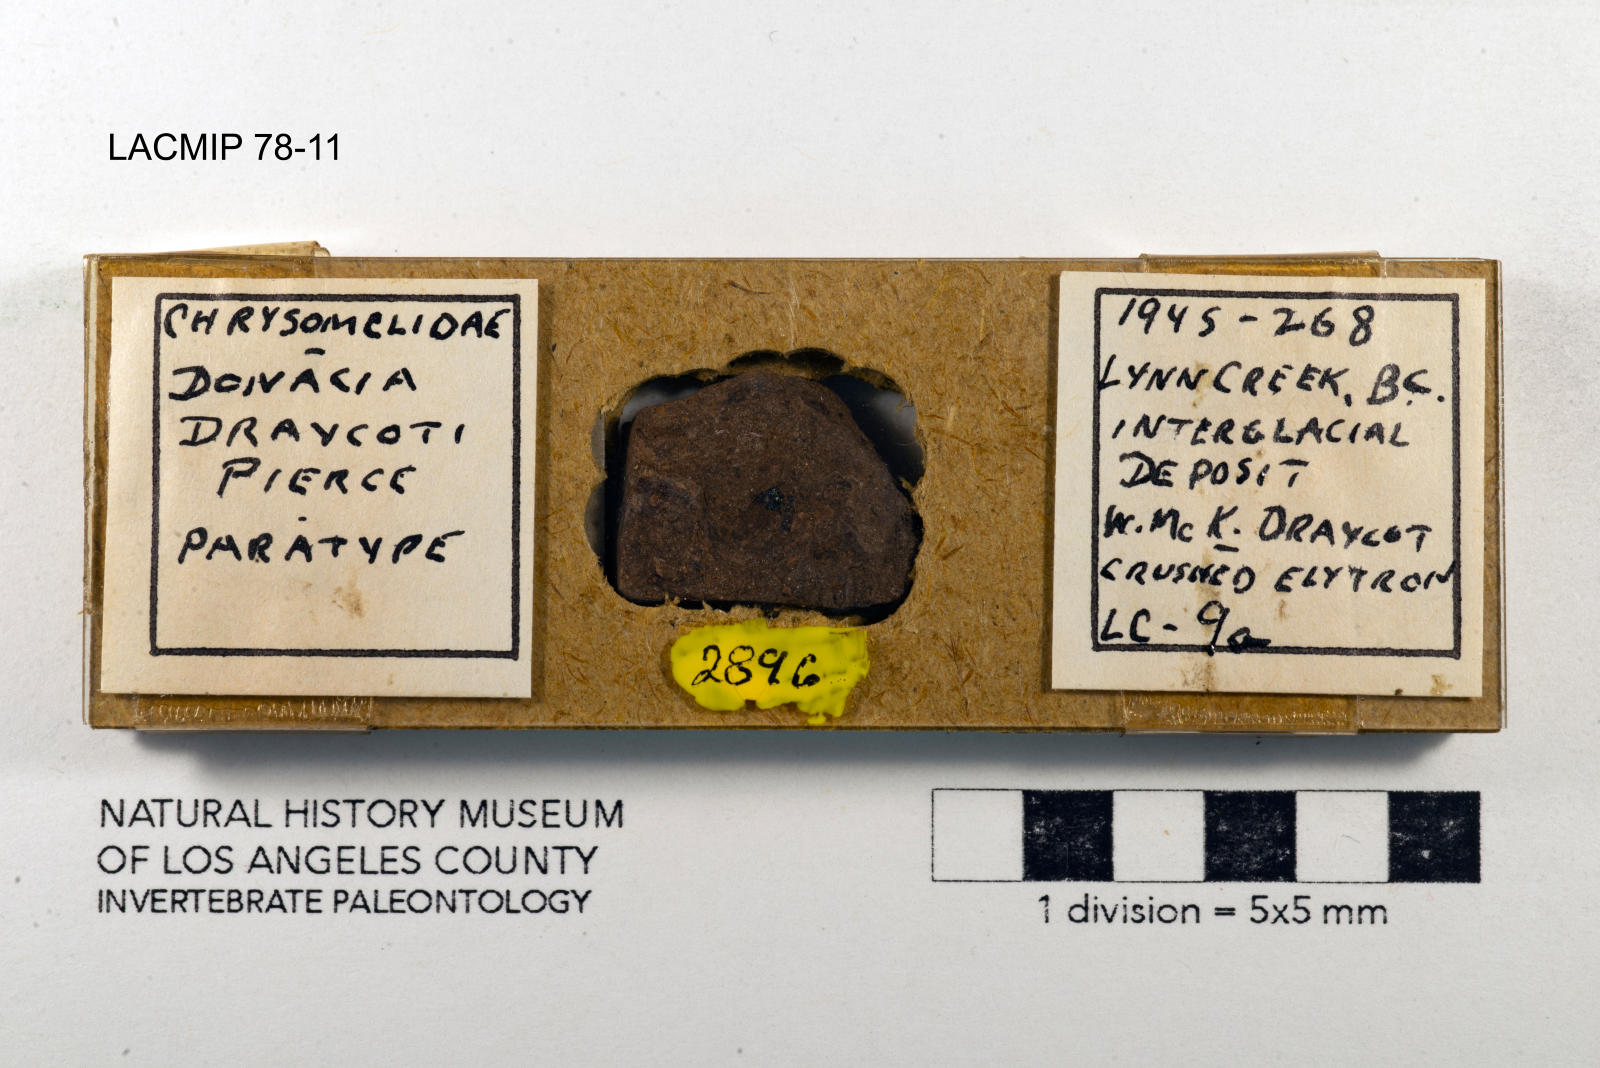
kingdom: Animalia
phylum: Arthropoda
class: Insecta
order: Coleoptera
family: Chrysomelidae
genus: Donacia
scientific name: Donacia draycoti
